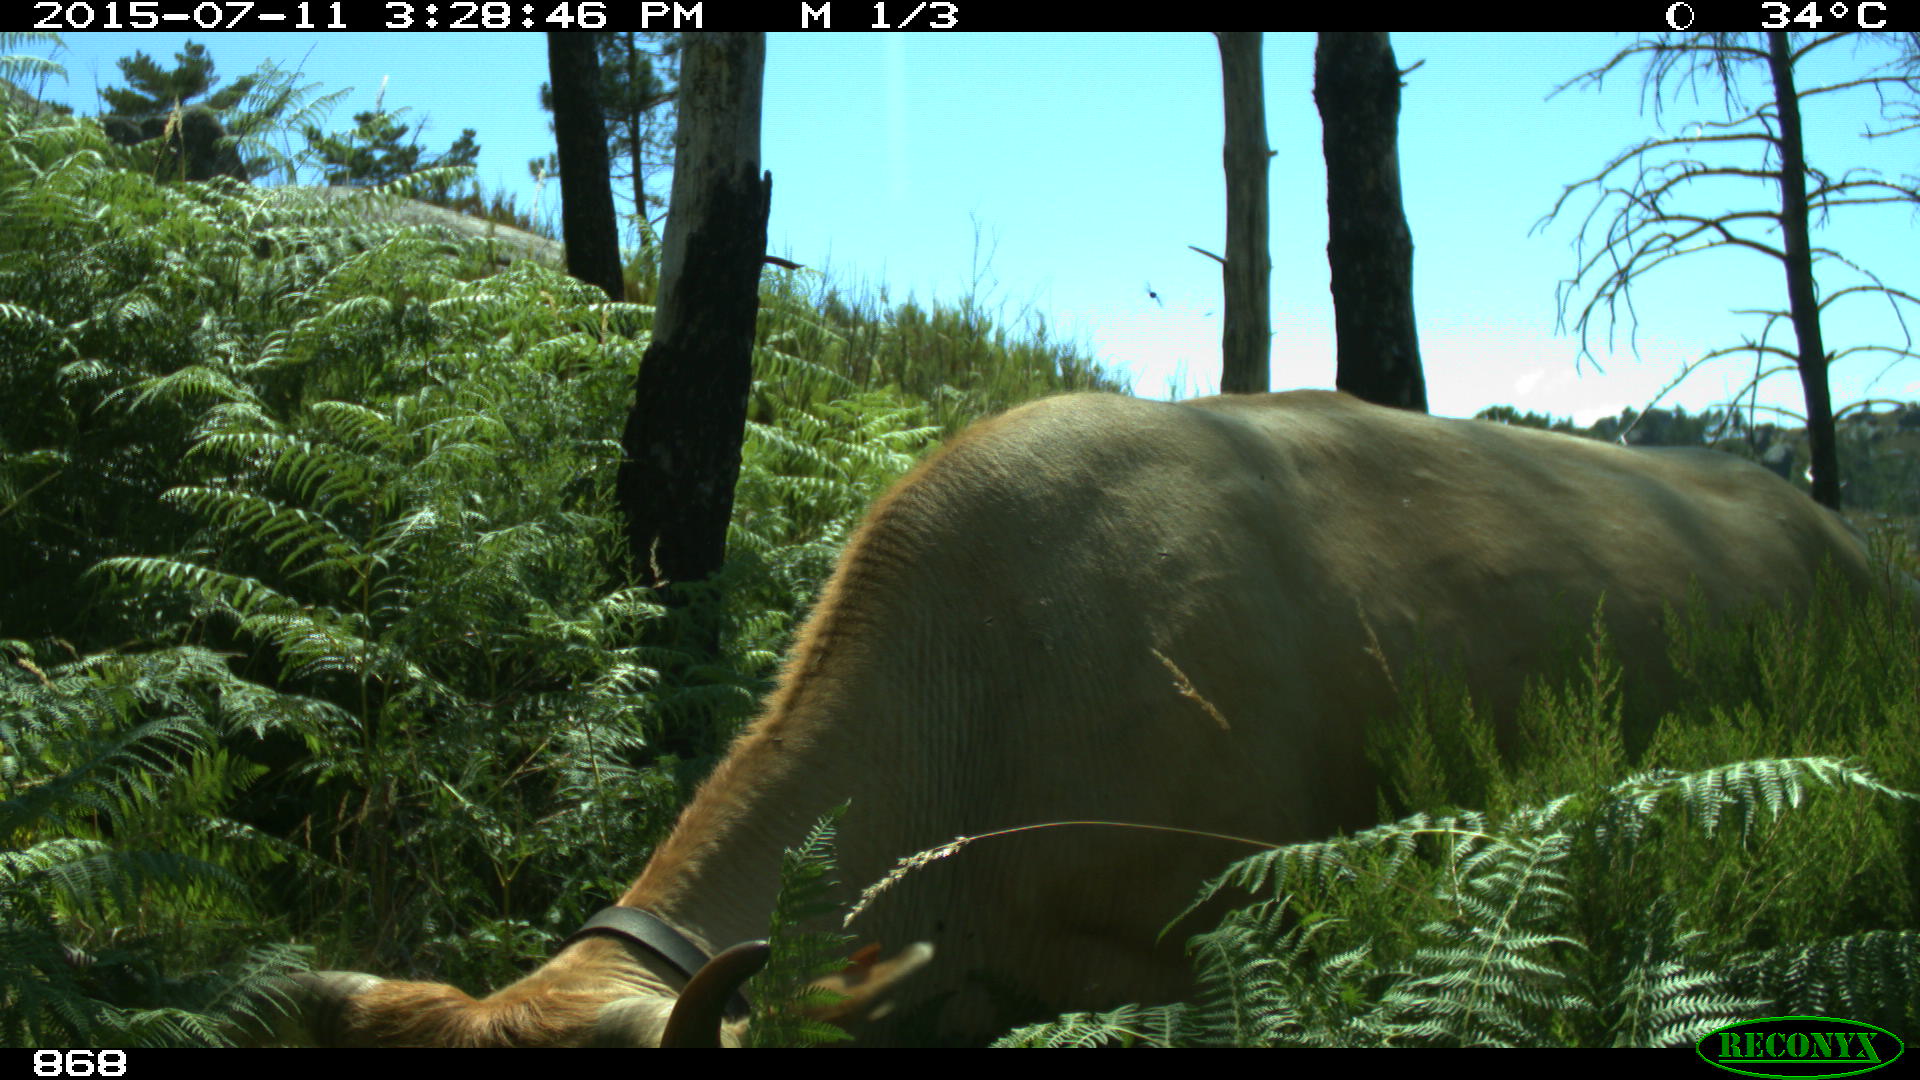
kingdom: Animalia
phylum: Chordata
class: Mammalia
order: Artiodactyla
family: Bovidae
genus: Bos
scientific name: Bos taurus
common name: Domesticated cattle
